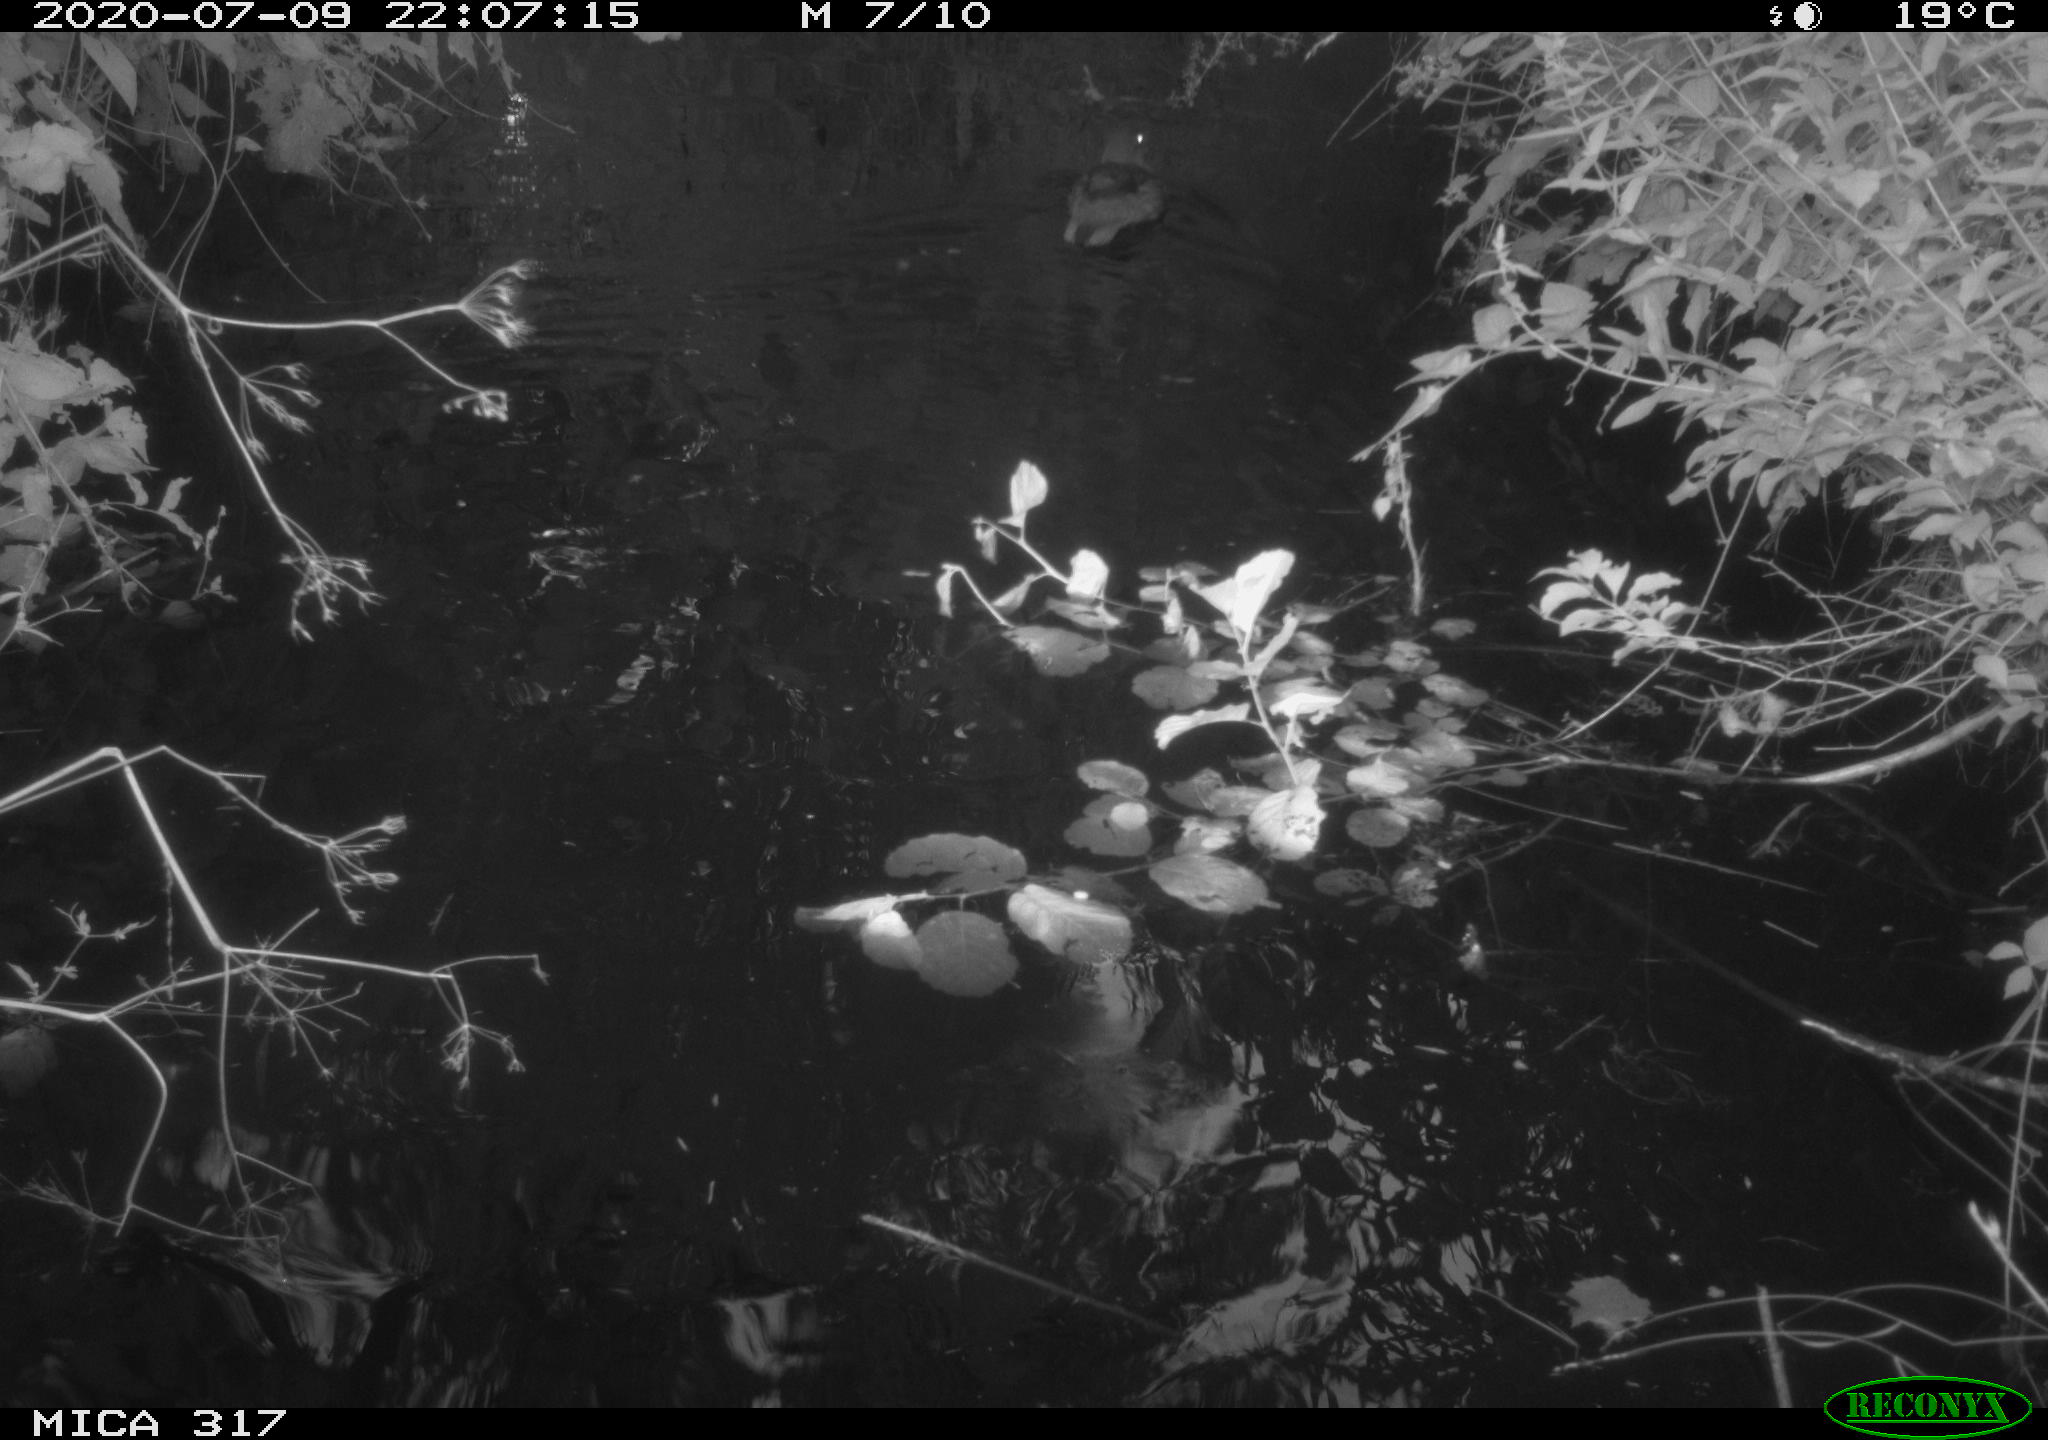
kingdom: Animalia
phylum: Chordata
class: Aves
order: Anseriformes
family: Anatidae
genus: Anas
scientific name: Anas platyrhynchos
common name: Mallard
